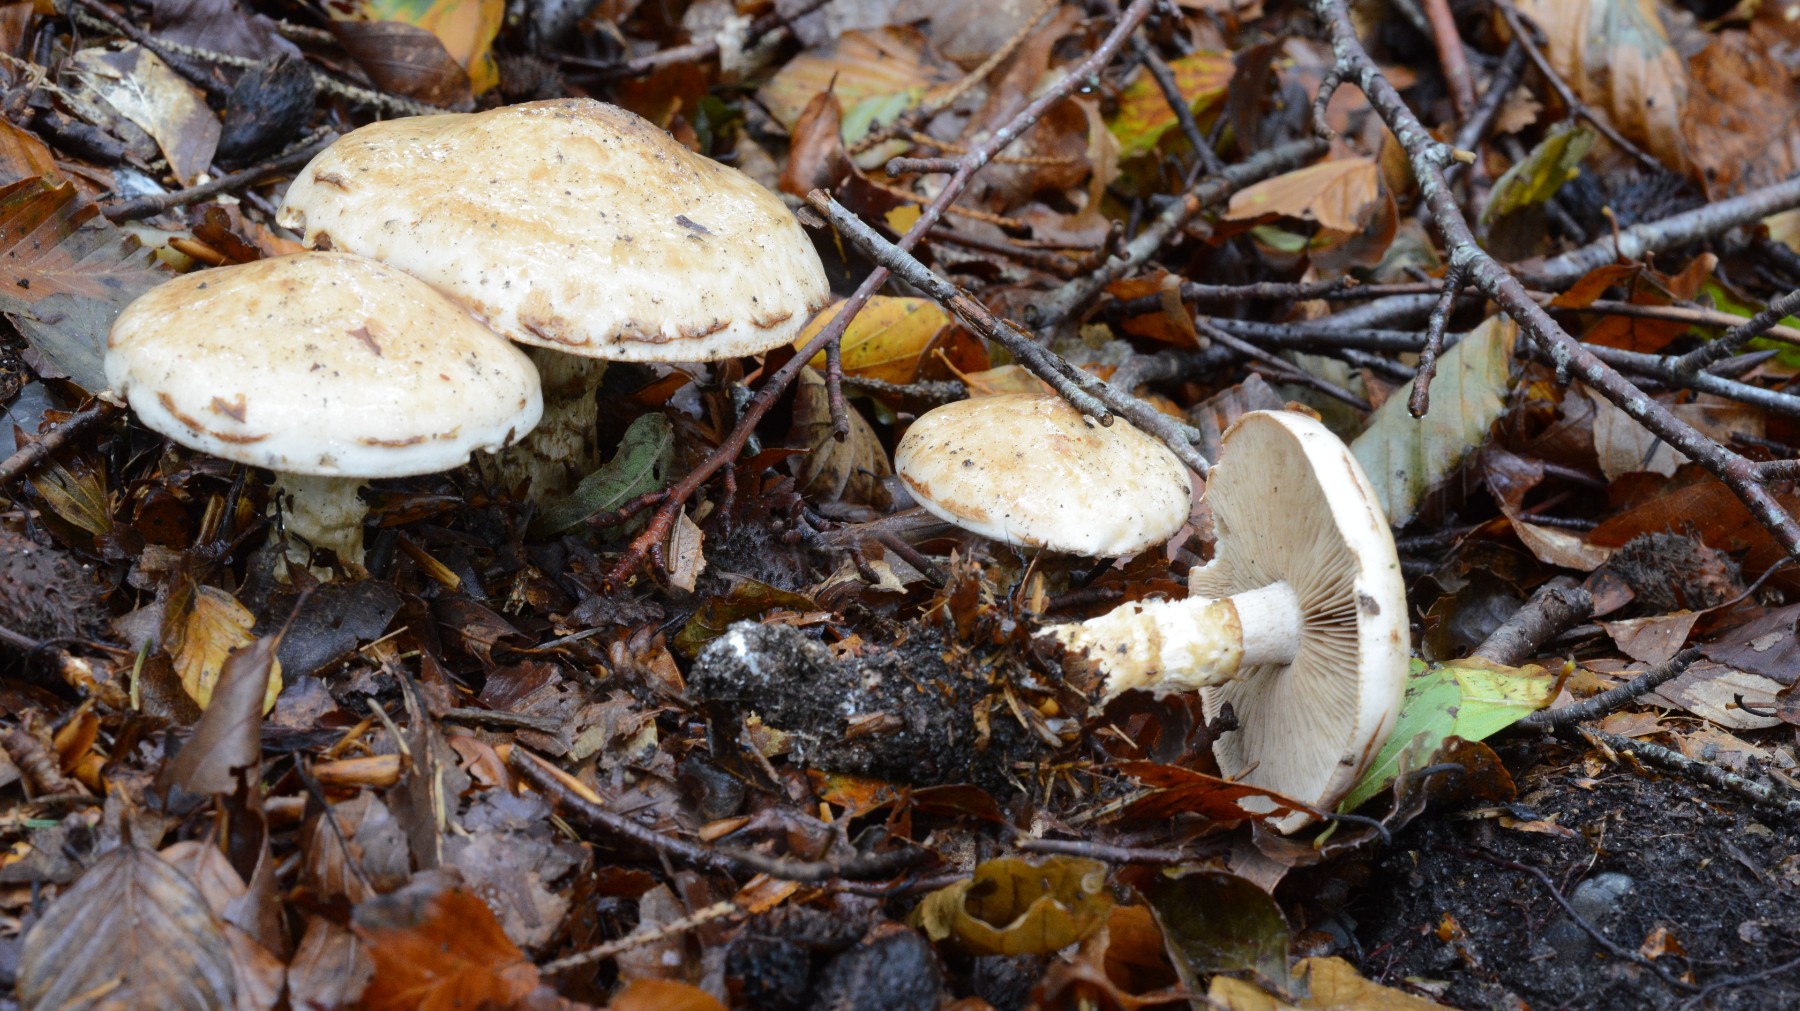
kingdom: Fungi
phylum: Basidiomycota
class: Agaricomycetes
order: Agaricales
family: Hymenogastraceae
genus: Hebeloma
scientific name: Hebeloma radicosum
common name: pælerods-tåreblad
